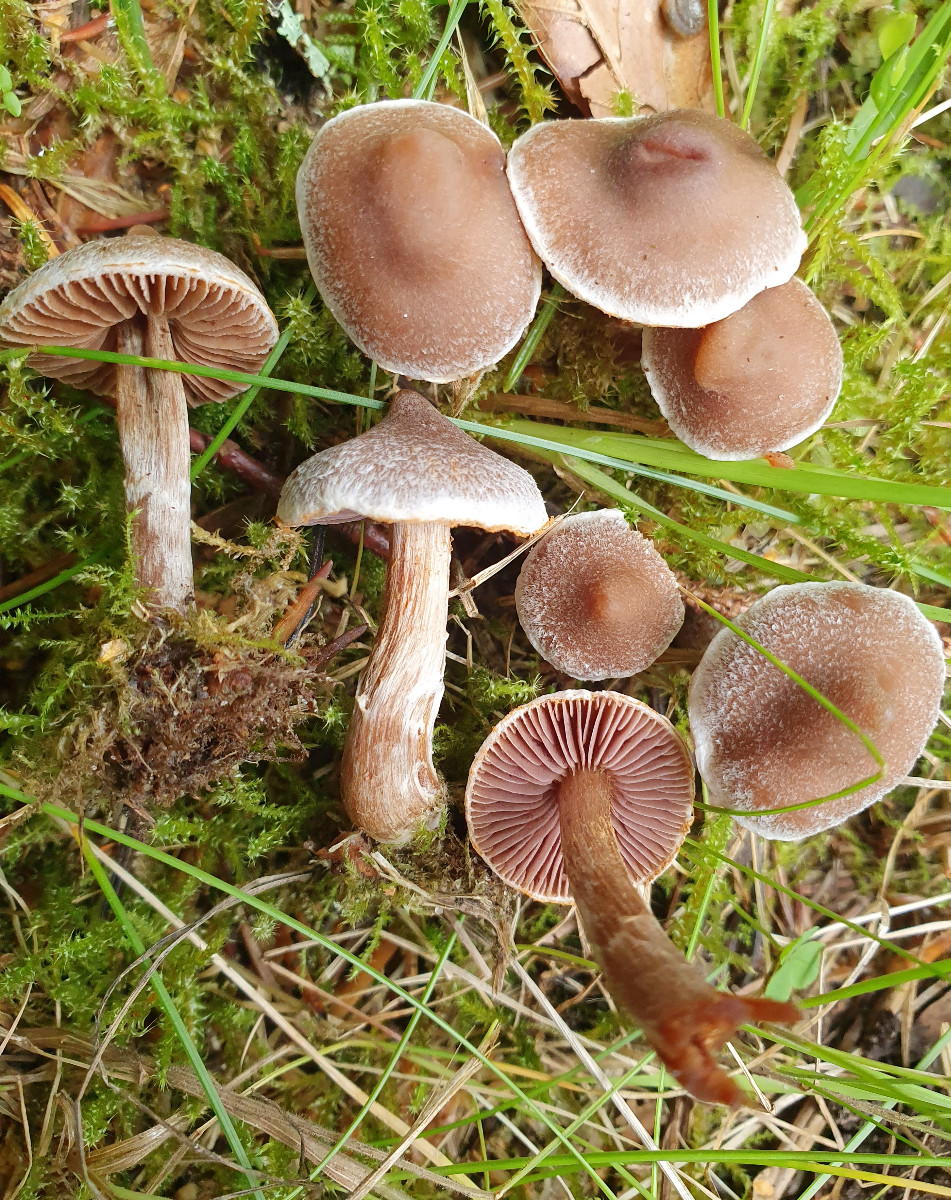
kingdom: Fungi
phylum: Basidiomycota
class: Agaricomycetes
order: Agaricales
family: Cortinariaceae
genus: Cortinarius
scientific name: Cortinarius
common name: pelargonie-slørhat
